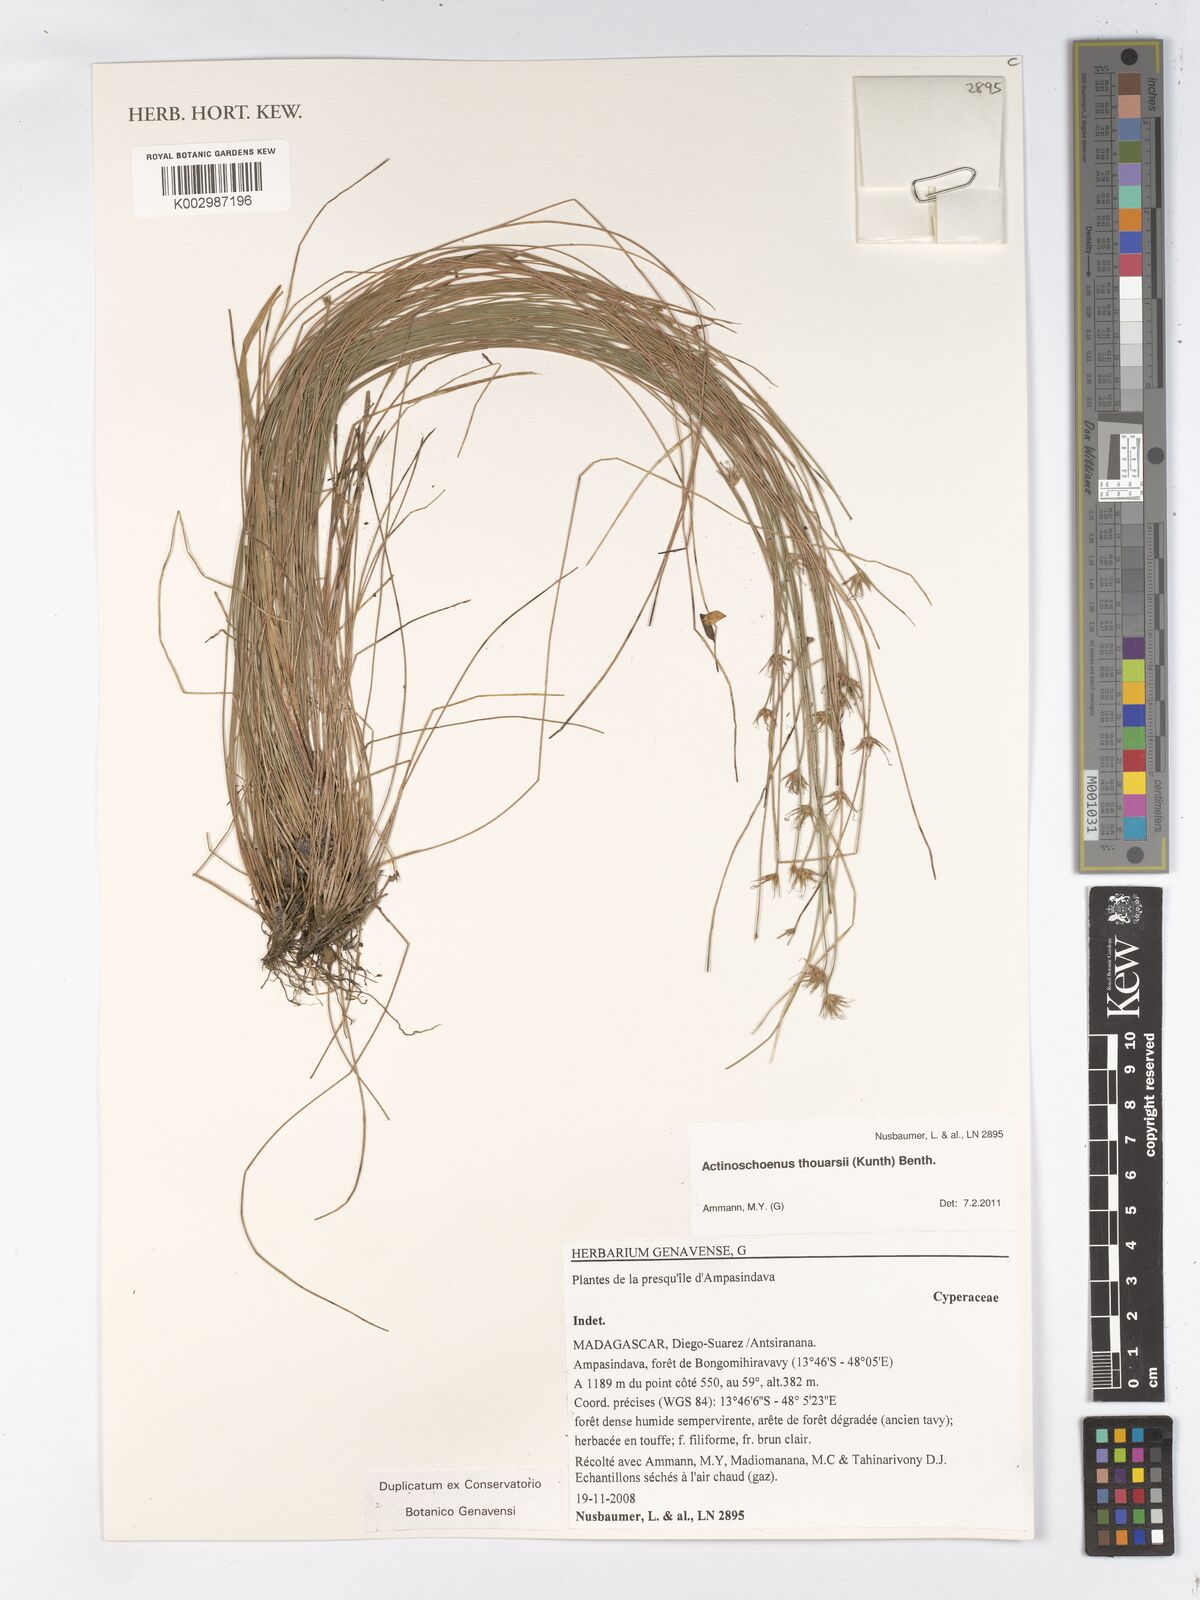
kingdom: Plantae
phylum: Tracheophyta
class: Liliopsida
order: Poales
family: Cyperaceae
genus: Actinoschoenus
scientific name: Actinoschoenus aphyllus
